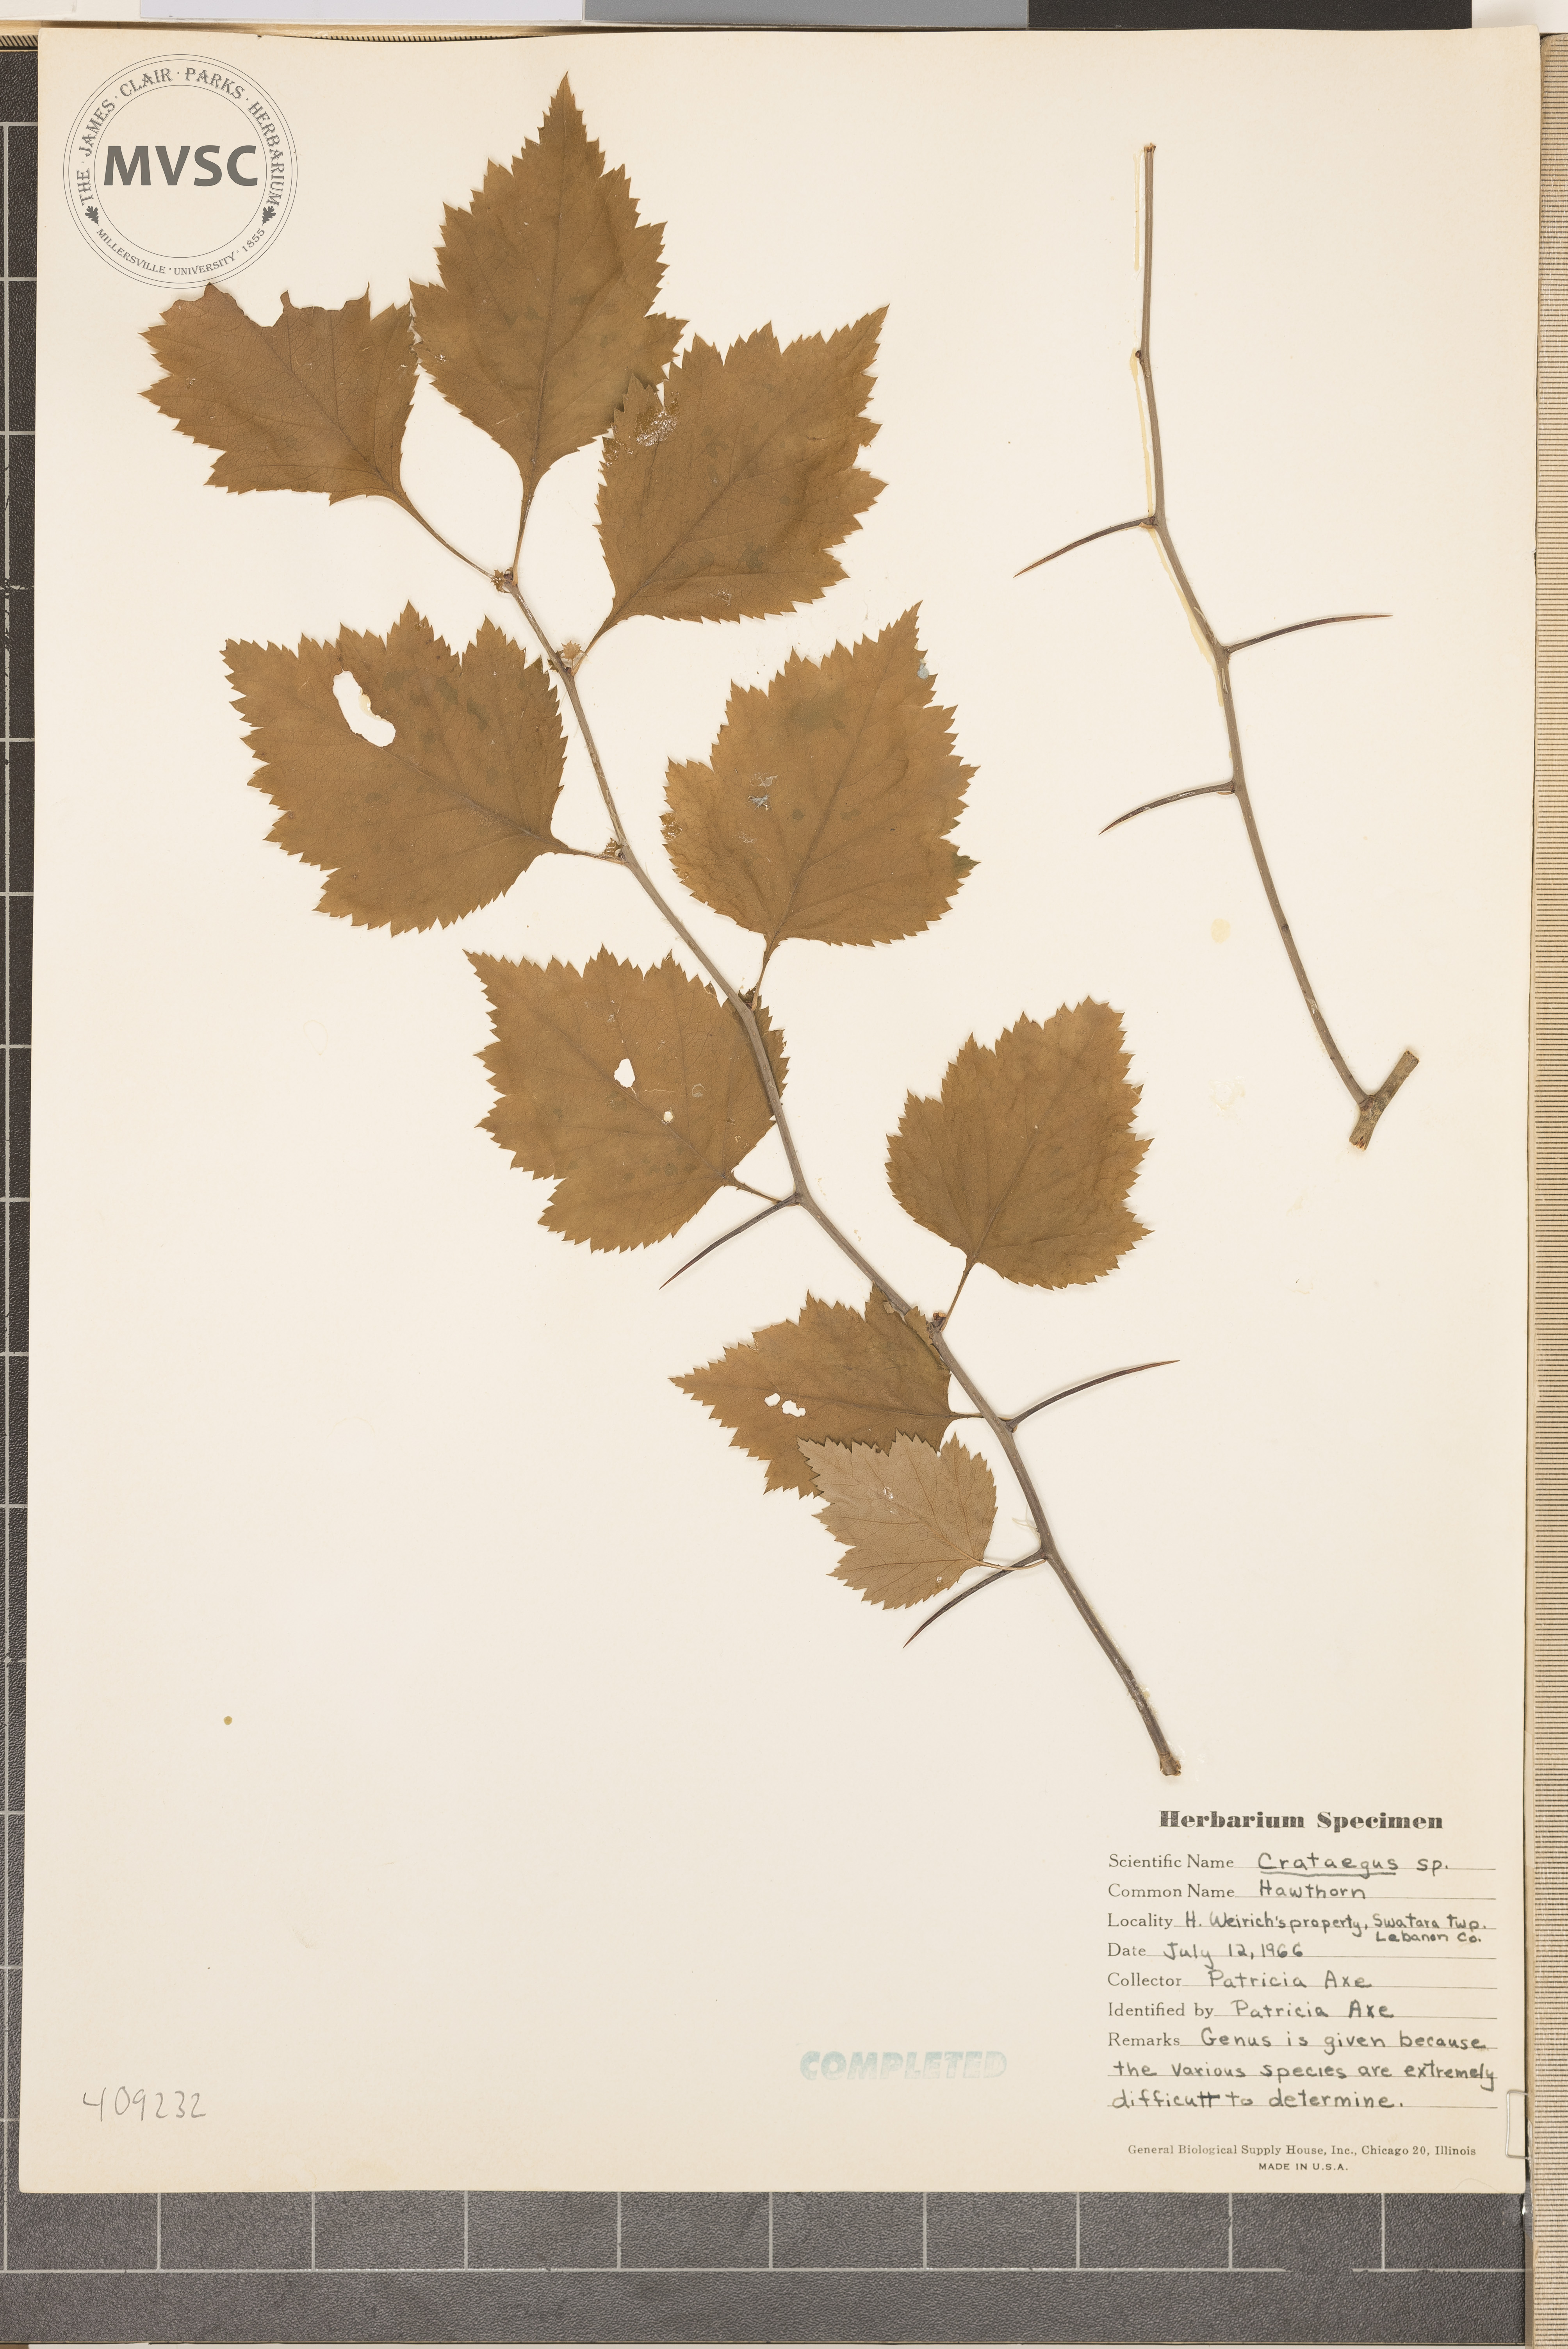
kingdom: Plantae
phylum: Tracheophyta
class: Magnoliopsida
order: Rosales
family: Rosaceae
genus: Crataegus
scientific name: Crataegus
